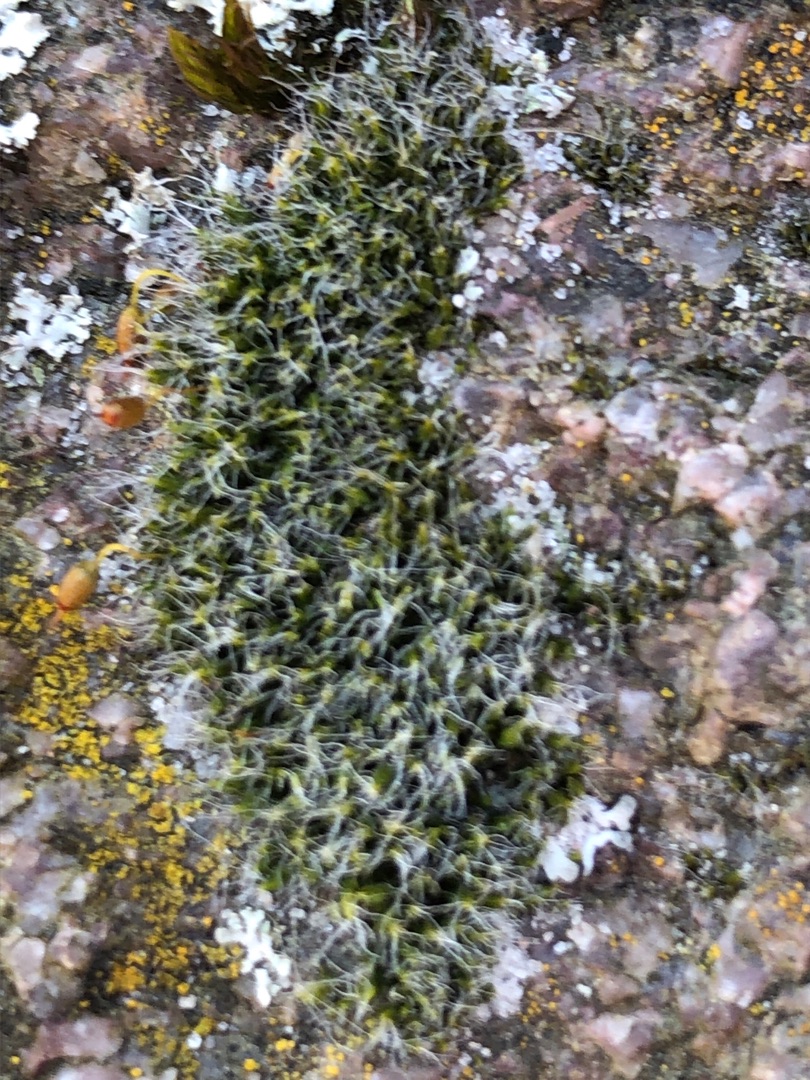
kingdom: Plantae
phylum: Bryophyta
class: Bryopsida
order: Grimmiales
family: Grimmiaceae
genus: Grimmia
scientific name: Grimmia pulvinata
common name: Pude-gråmos
